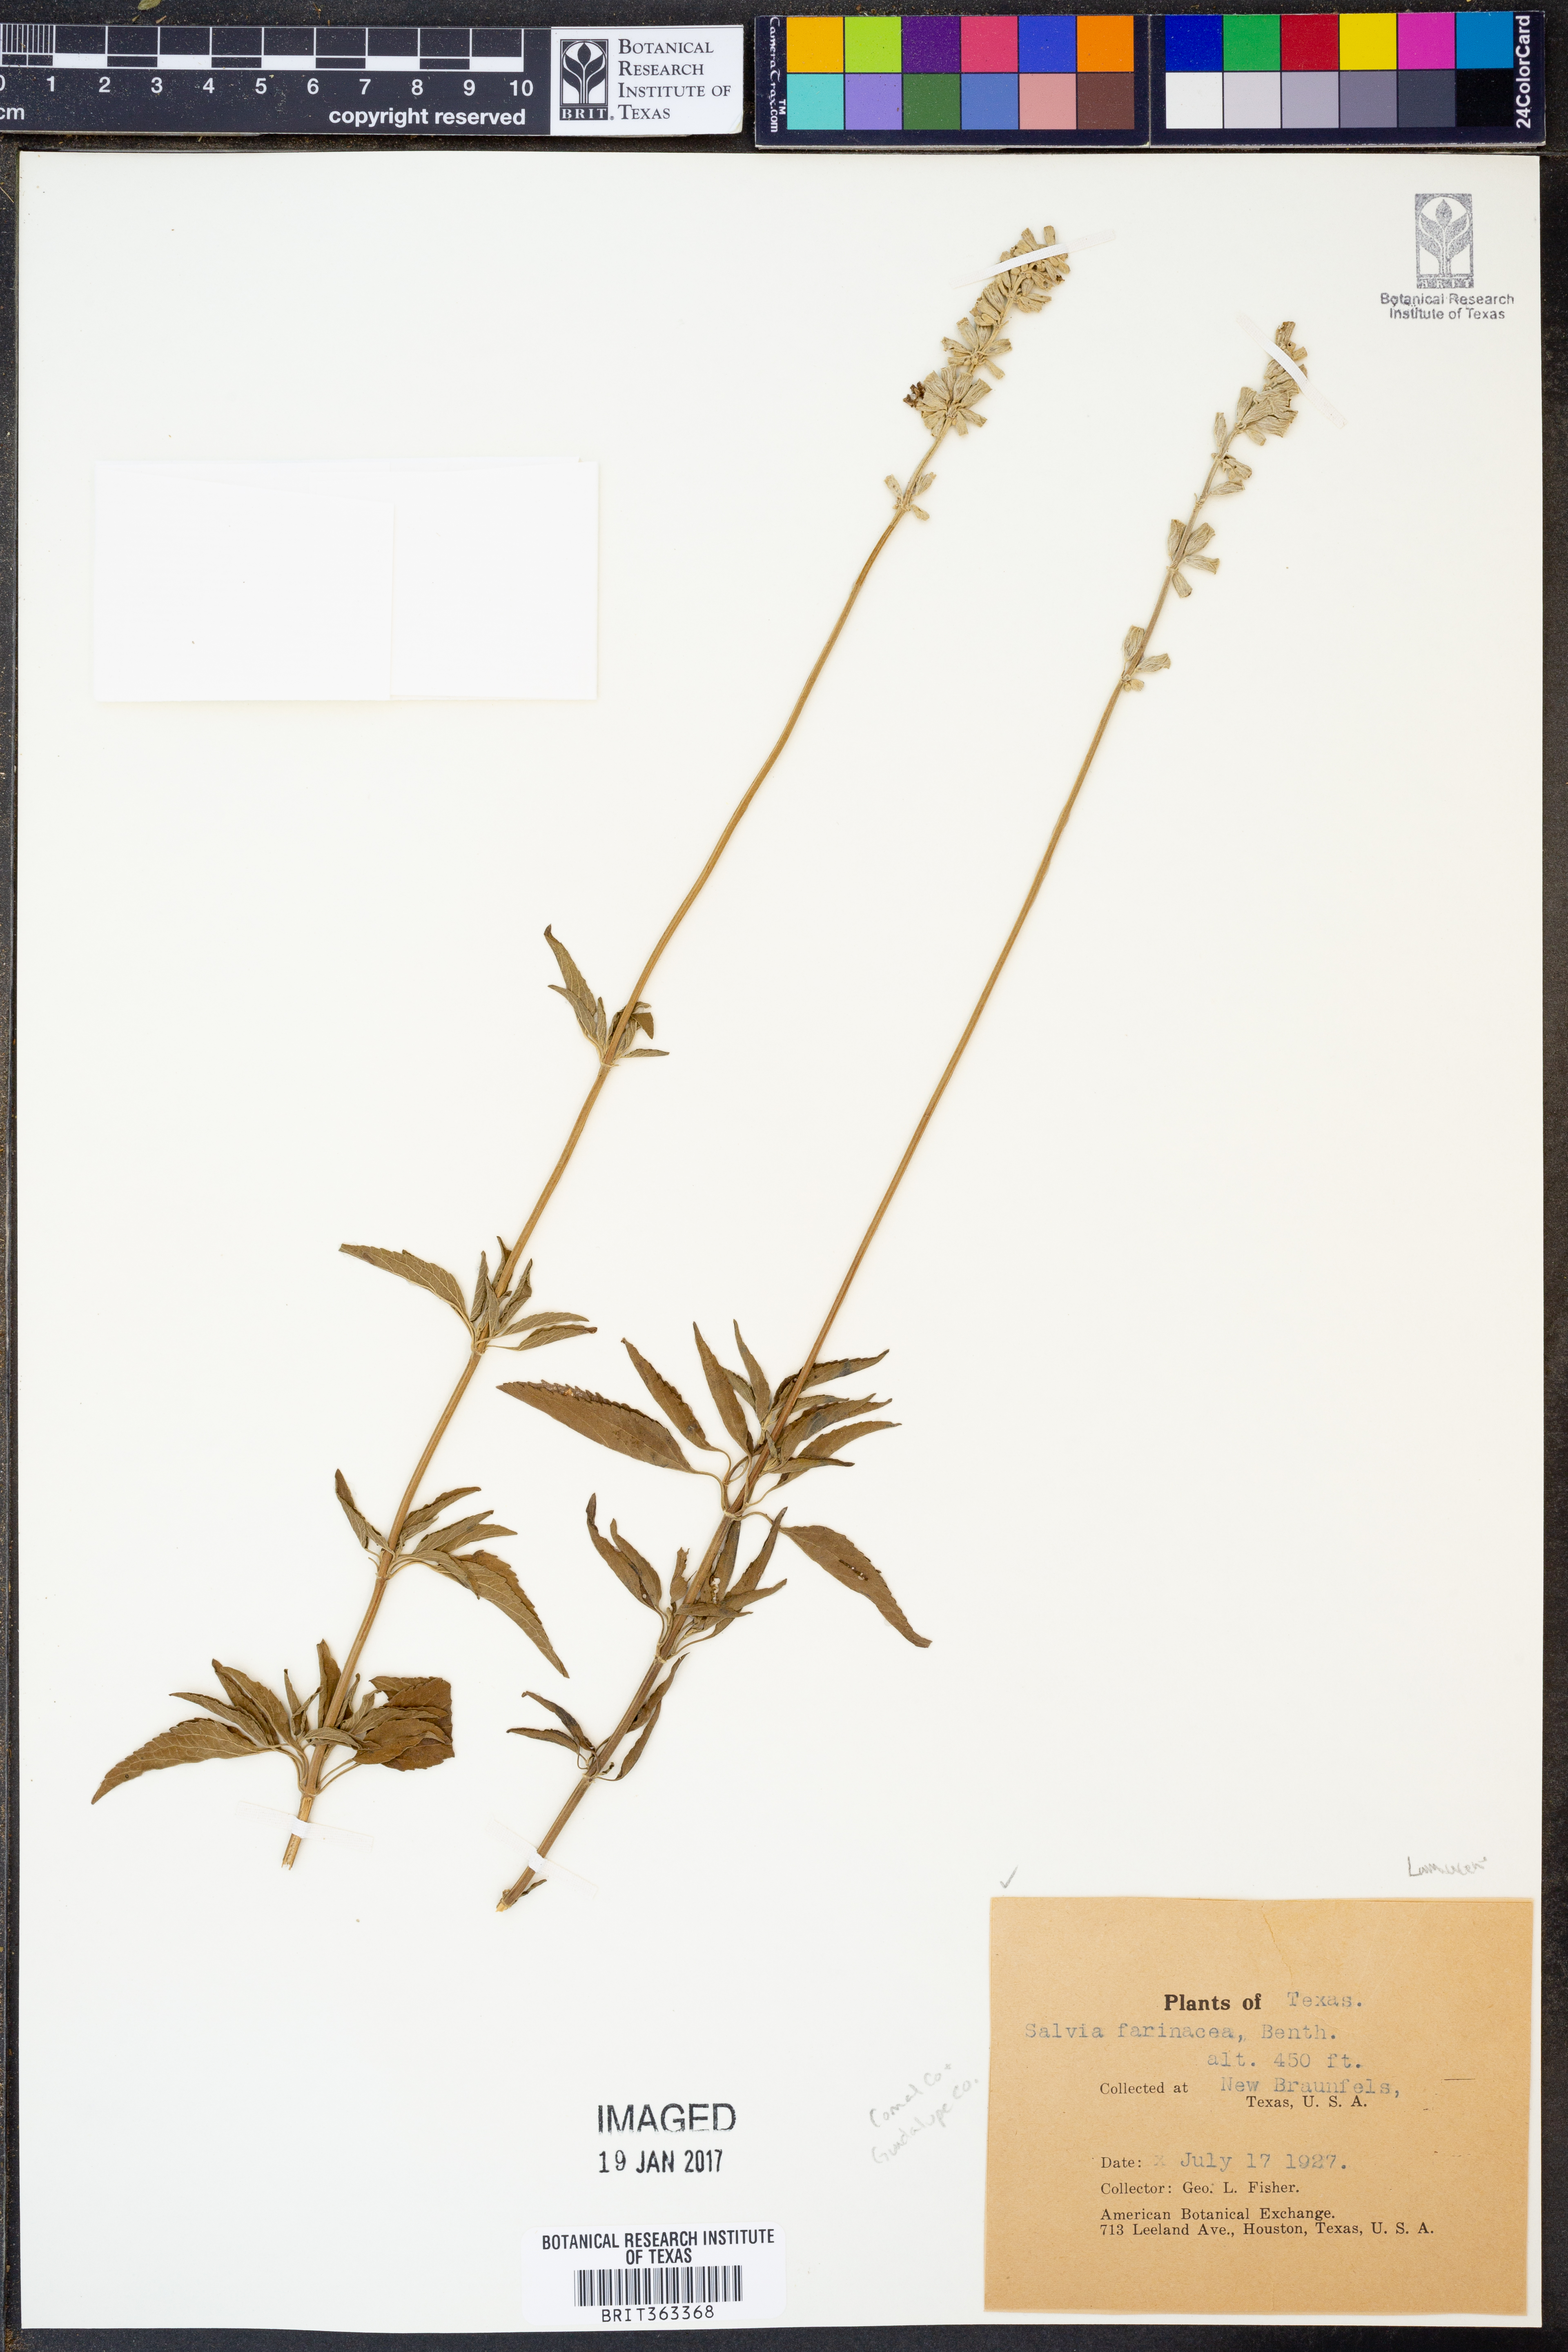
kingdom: Plantae
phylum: Tracheophyta
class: Magnoliopsida
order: Lamiales
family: Lamiaceae
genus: Salvia
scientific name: Salvia farinacea
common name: Mealy sage
